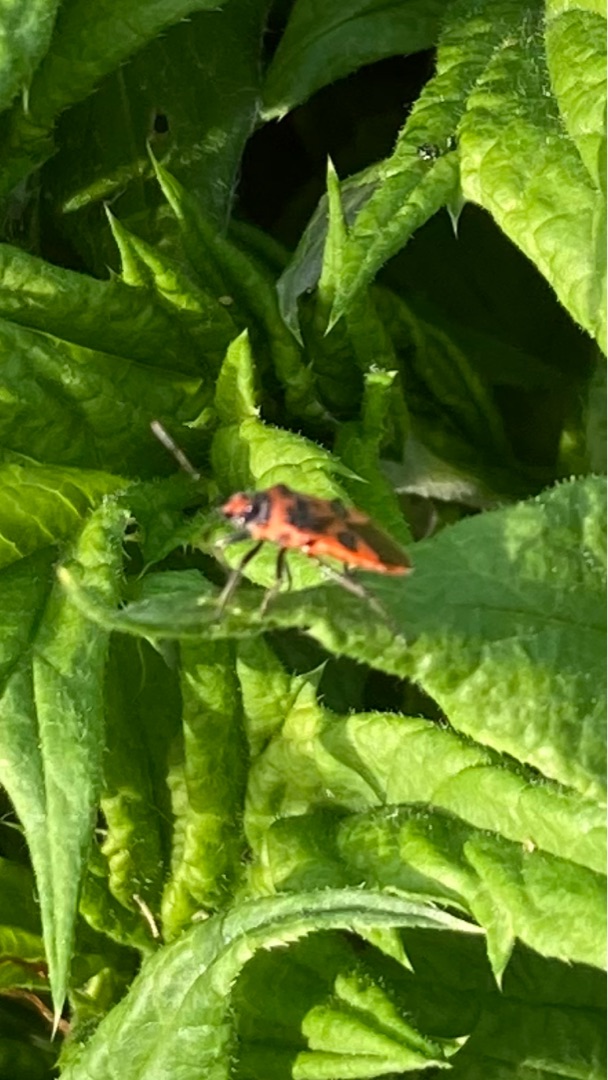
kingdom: Animalia
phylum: Arthropoda
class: Insecta
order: Hemiptera
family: Rhopalidae
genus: Corizus
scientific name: Corizus hyoscyami
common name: Rød kanttæge
